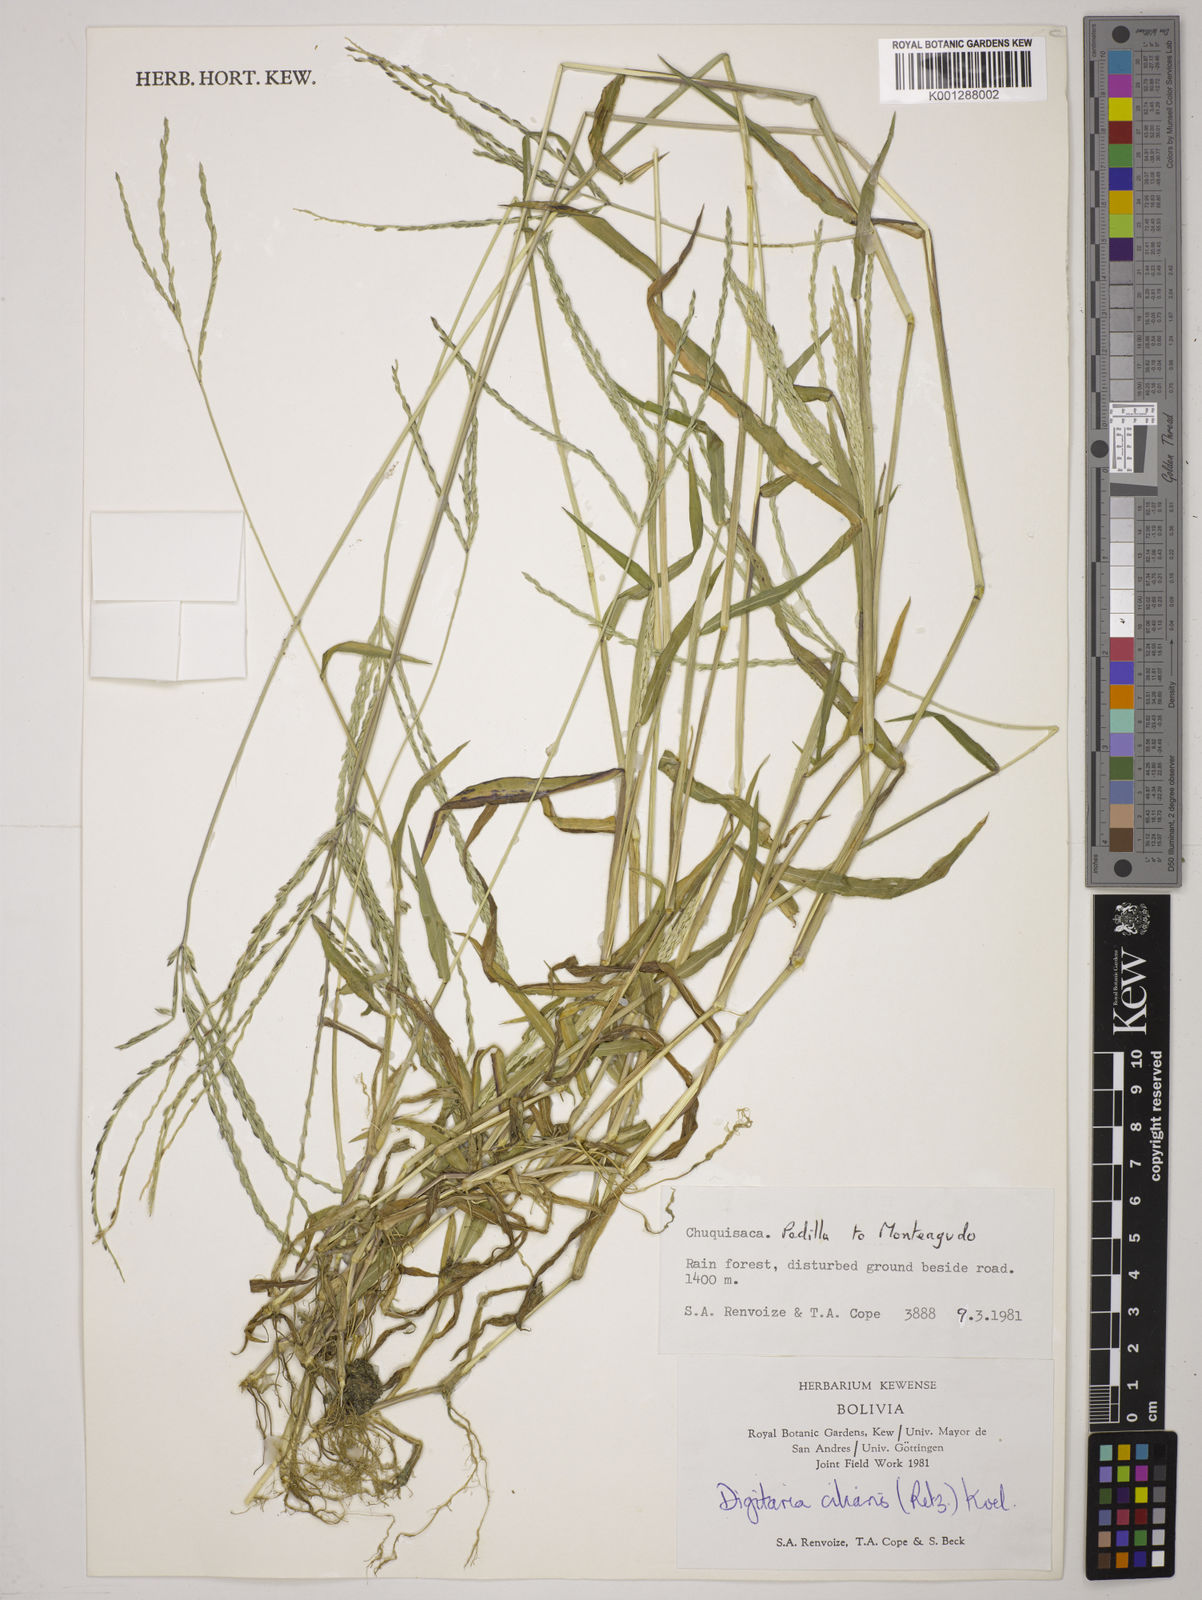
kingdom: Plantae
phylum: Tracheophyta
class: Liliopsida
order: Poales
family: Poaceae
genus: Digitaria
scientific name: Digitaria
